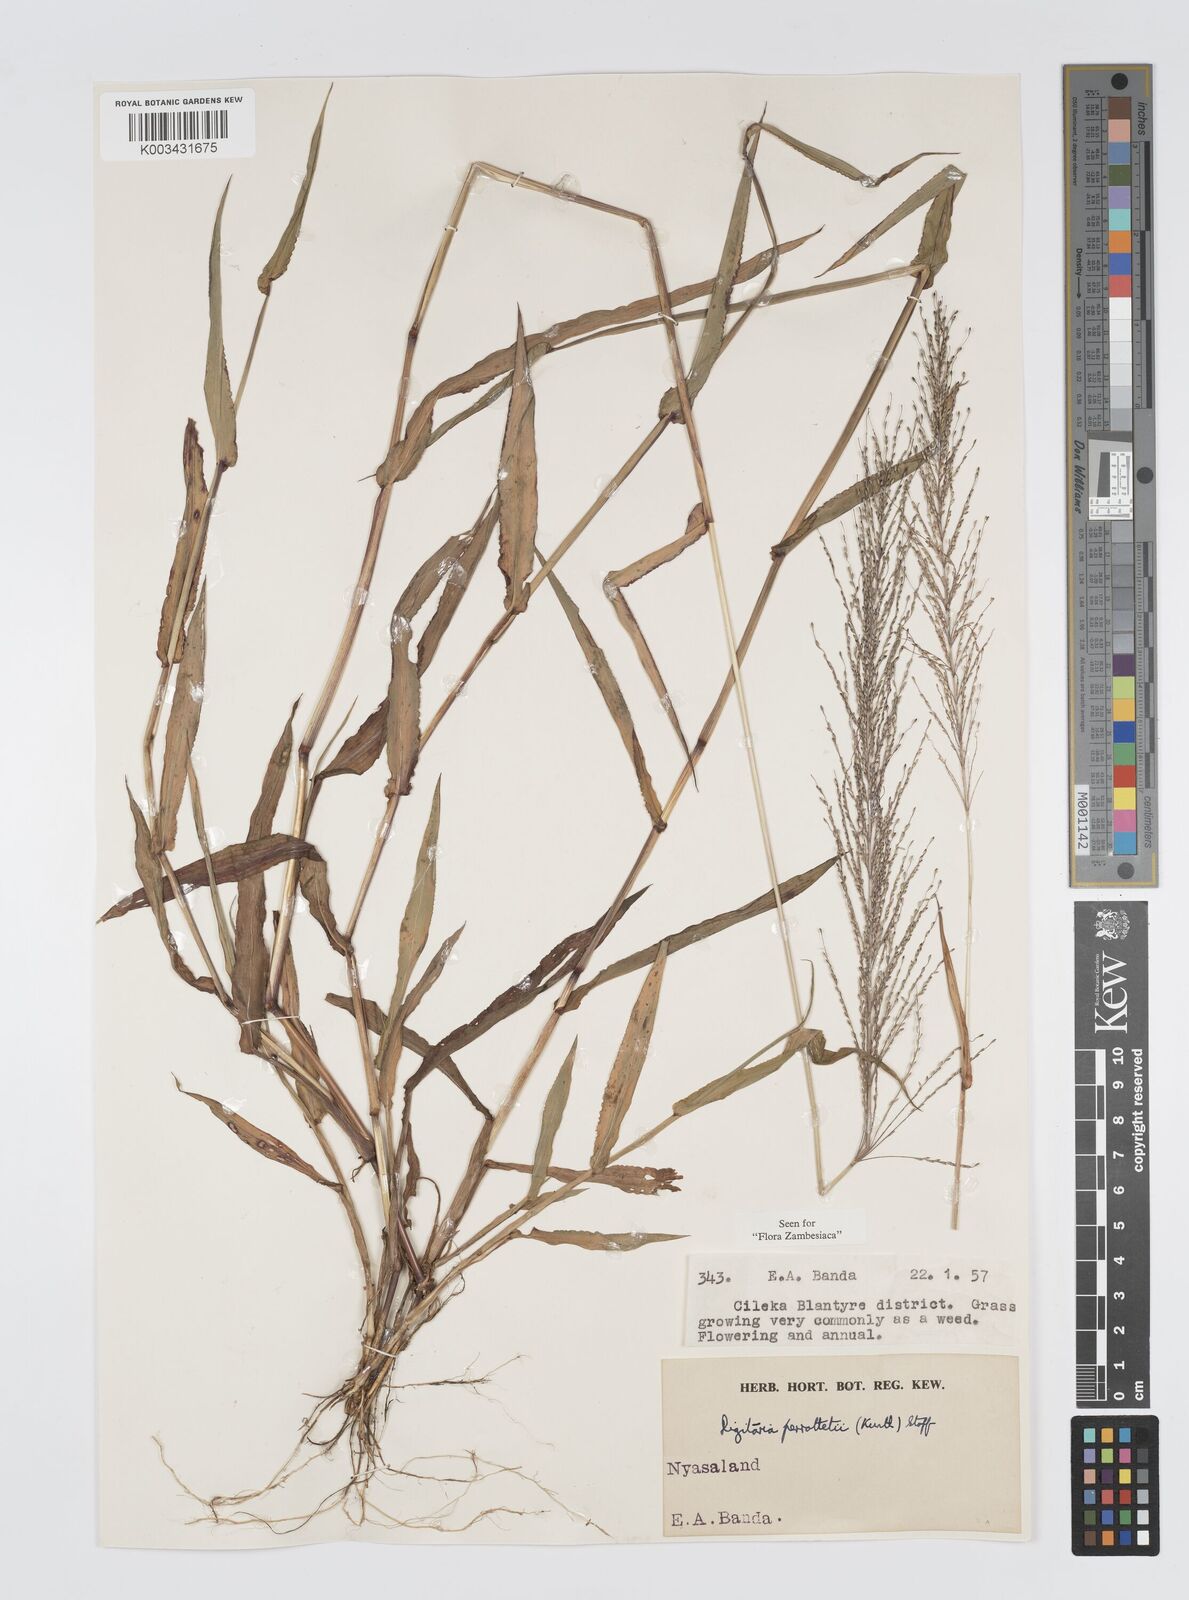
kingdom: Plantae
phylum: Tracheophyta
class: Liliopsida
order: Poales
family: Poaceae
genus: Digitaria
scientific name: Digitaria perrottetii
